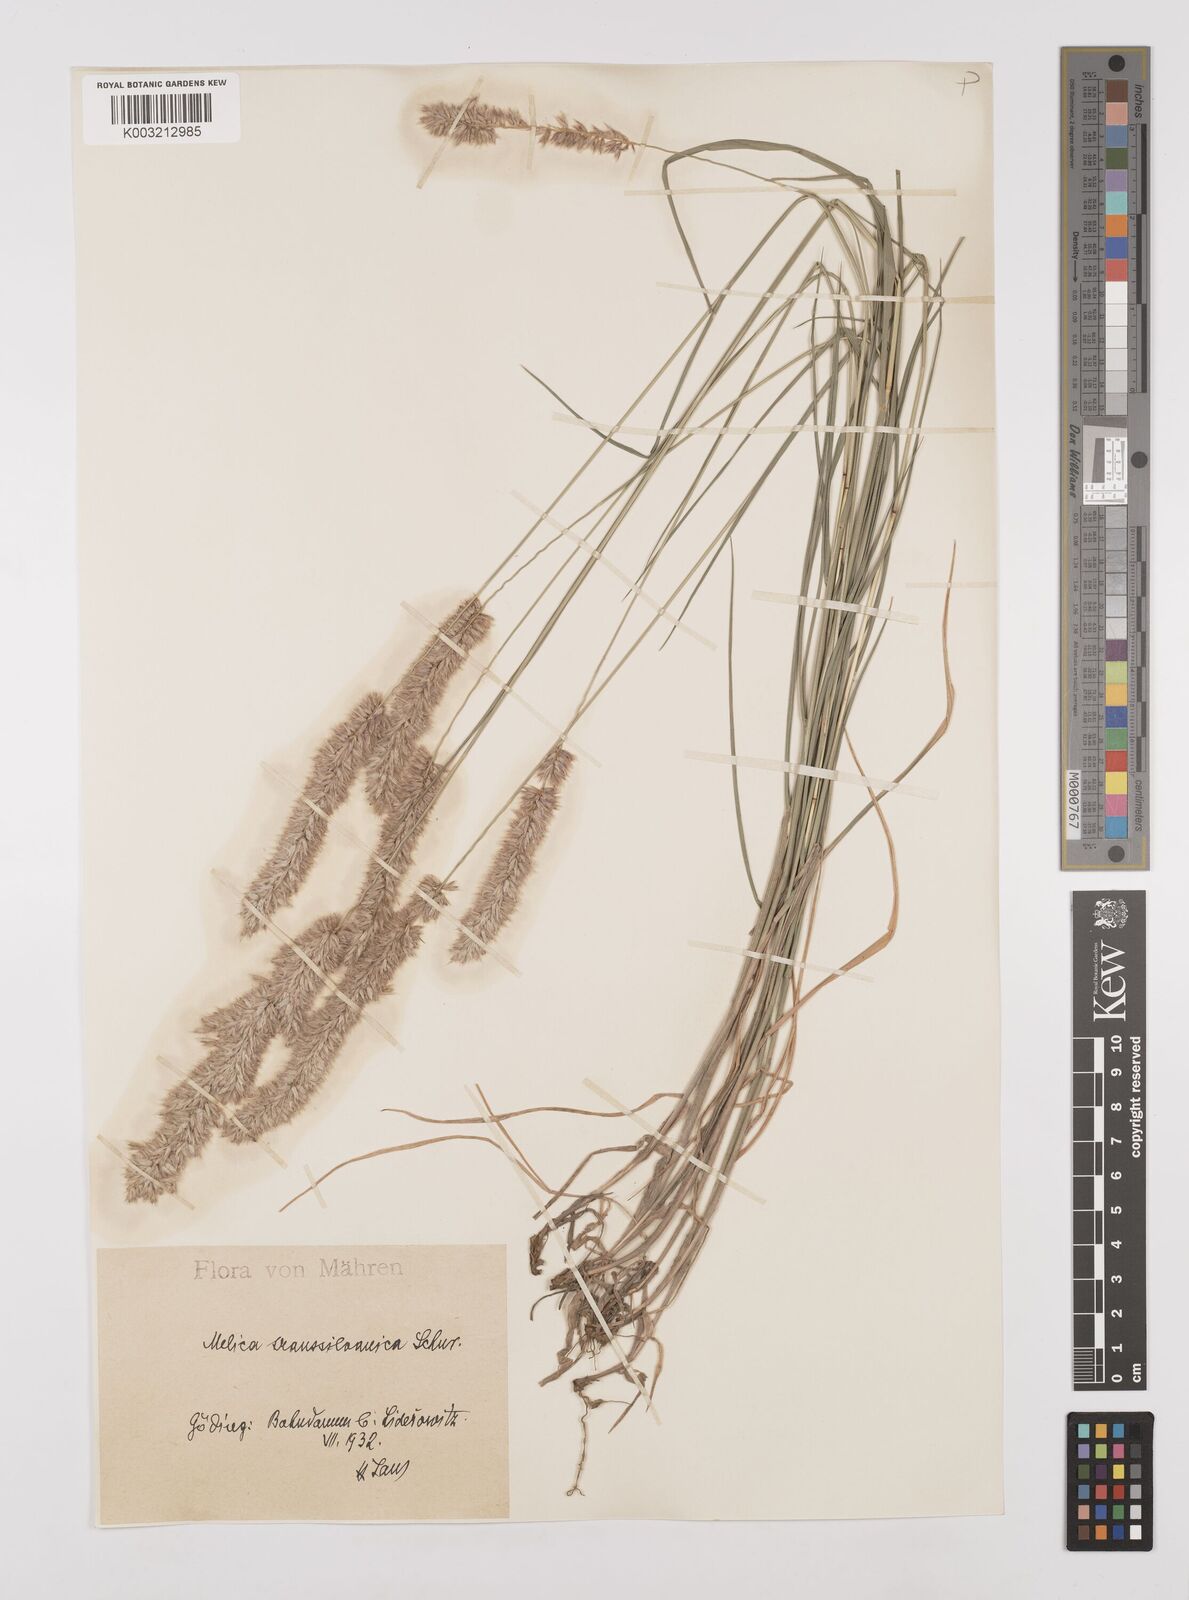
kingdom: Plantae
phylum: Tracheophyta
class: Liliopsida
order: Poales
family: Poaceae
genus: Melica
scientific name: Melica transsilvanica
